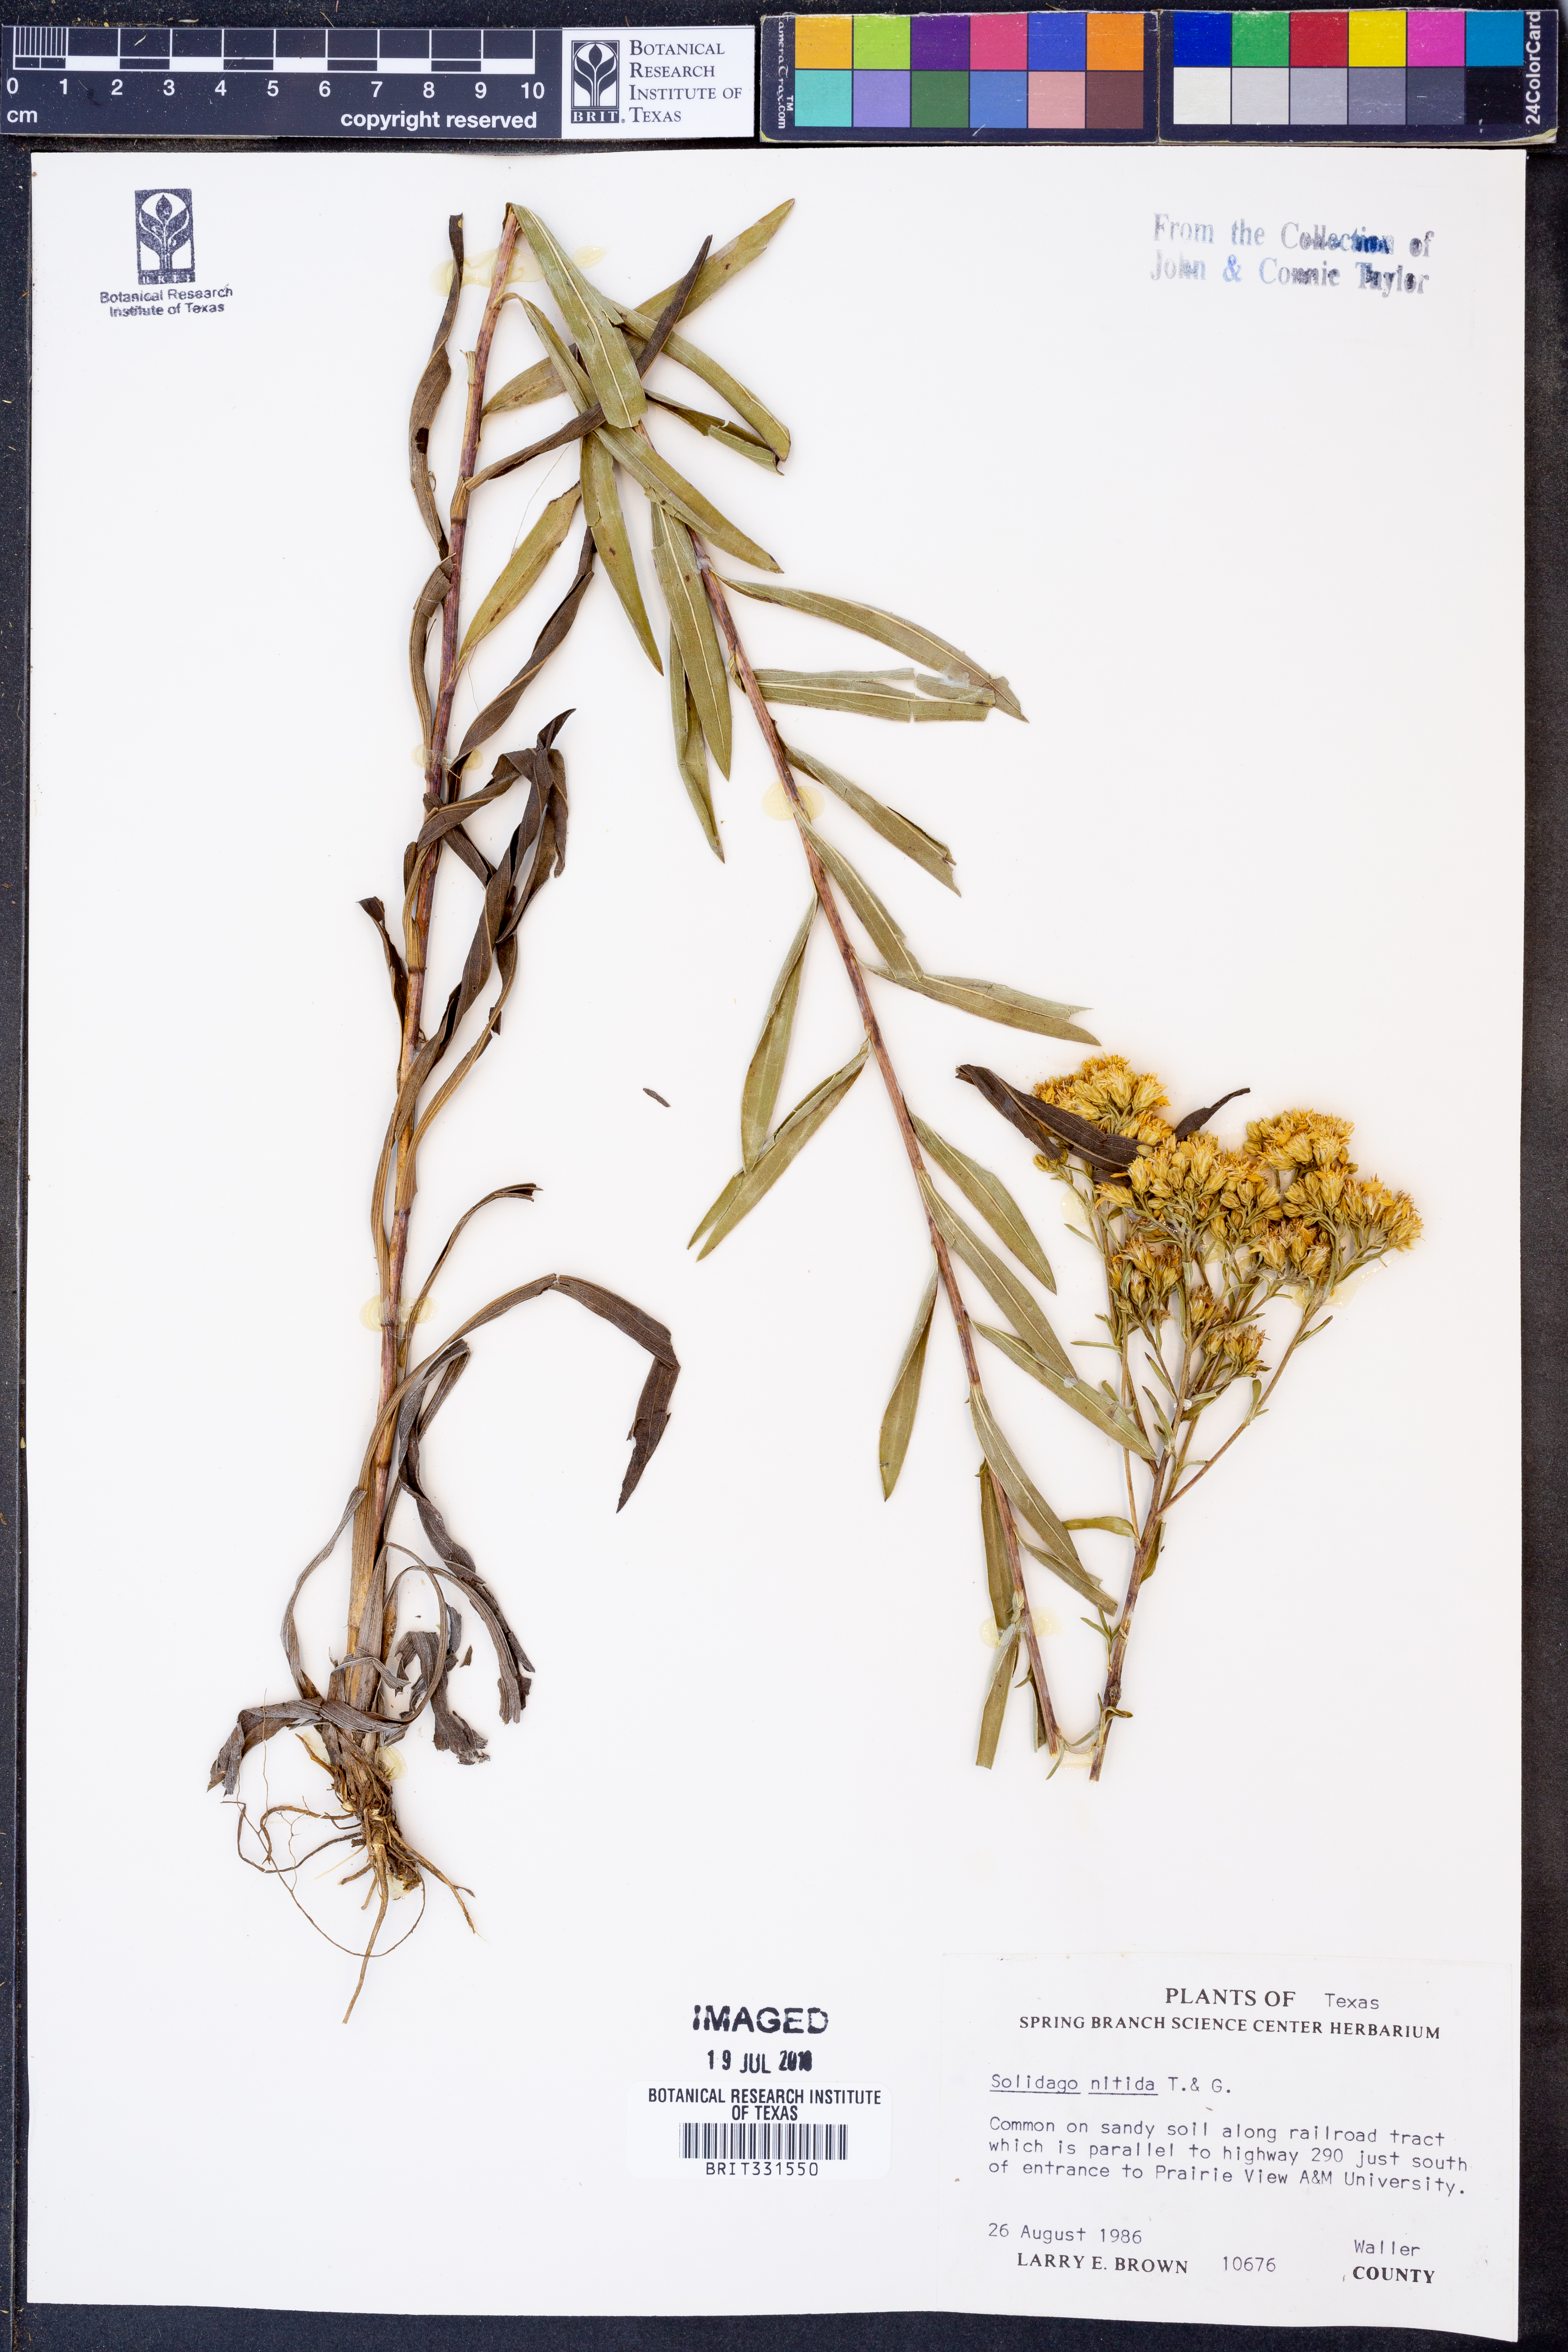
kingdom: Plantae
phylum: Tracheophyta
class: Magnoliopsida
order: Asterales
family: Asteraceae
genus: Solidago
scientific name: Solidago nitida
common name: Shiny goldenrod
